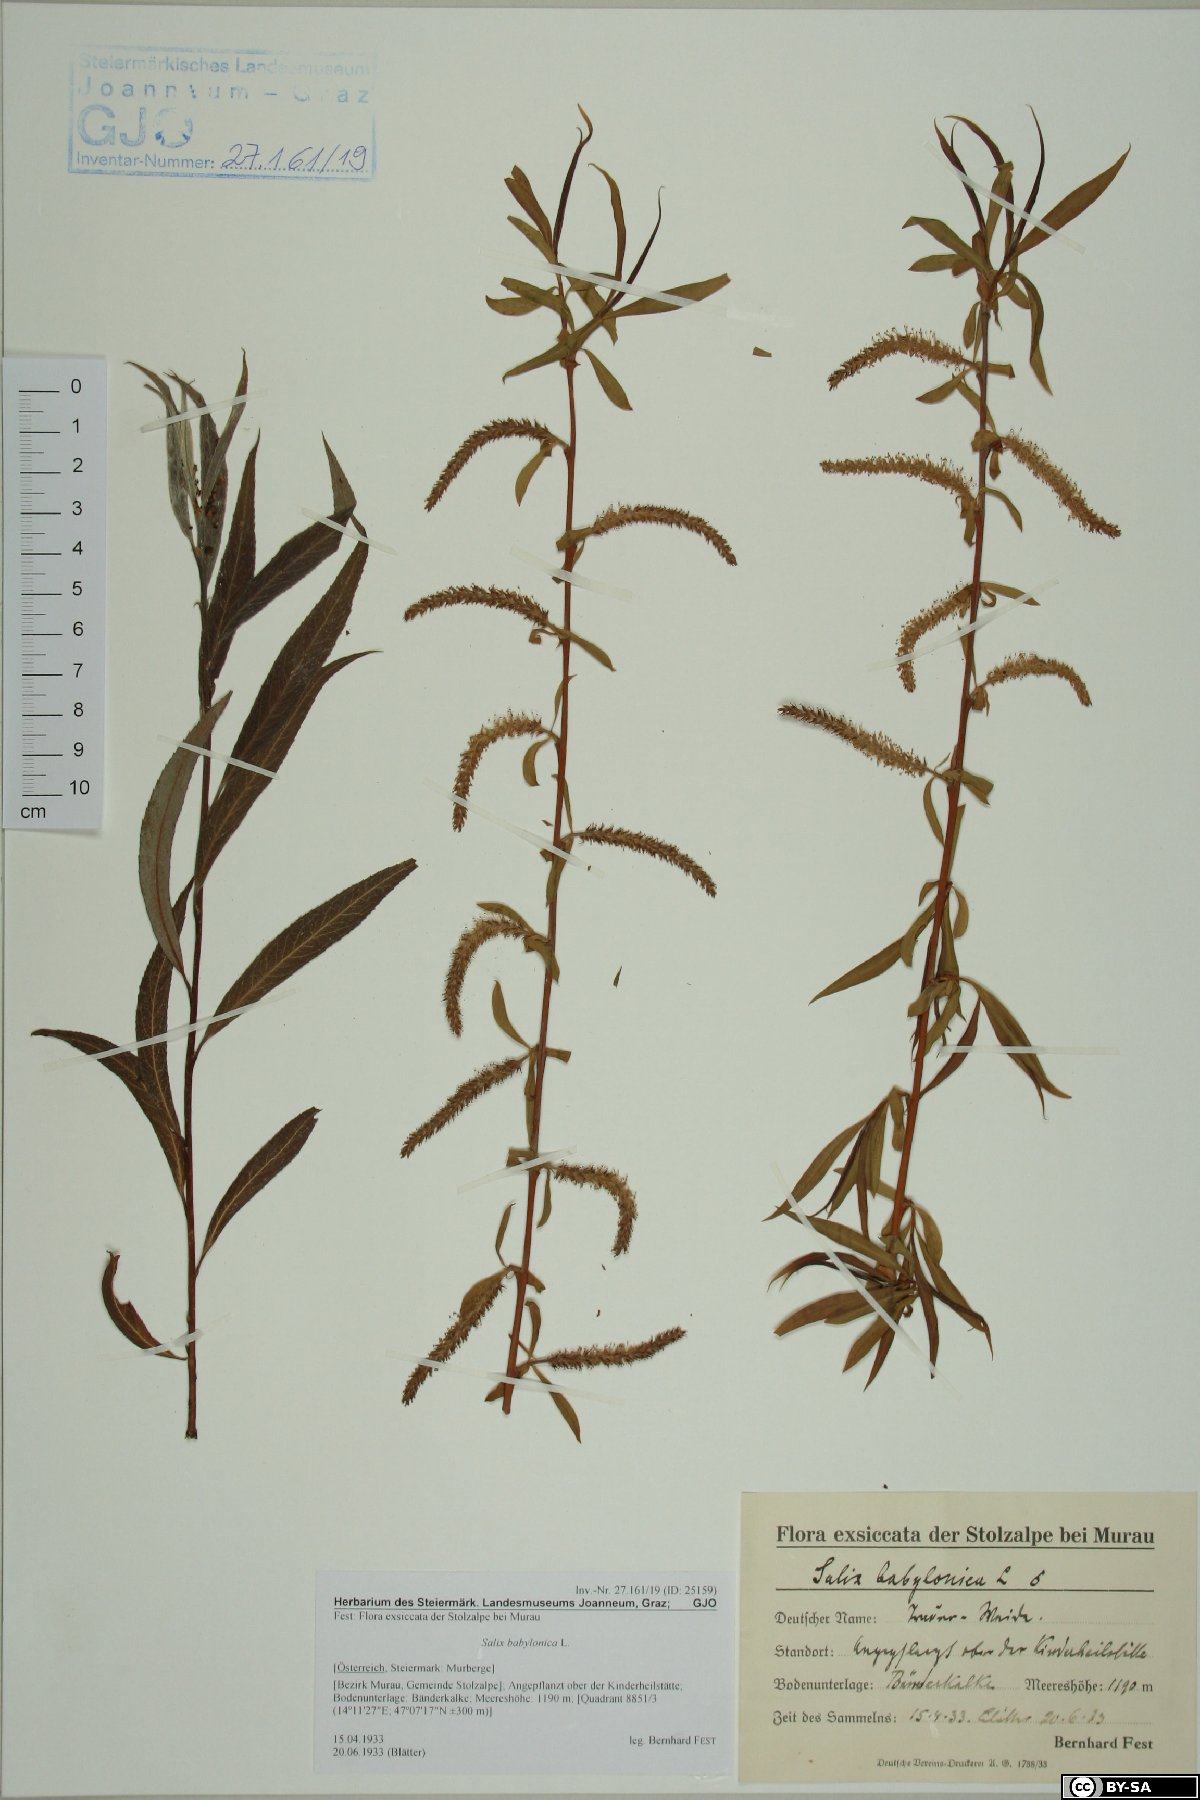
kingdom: Plantae
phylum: Tracheophyta
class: Magnoliopsida
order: Malpighiales
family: Salicaceae
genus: Salix
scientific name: Salix babylonica
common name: Weeping willow
